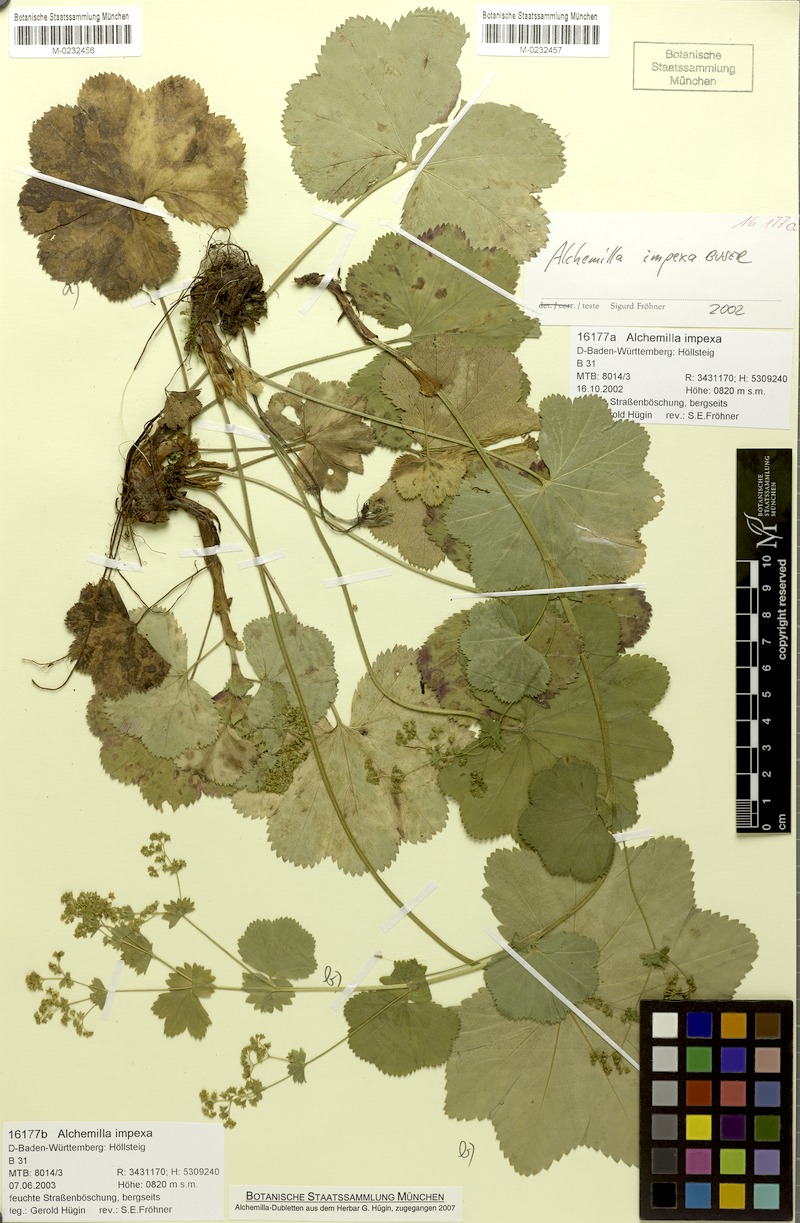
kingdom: Plantae
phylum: Tracheophyta
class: Magnoliopsida
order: Rosales
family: Rosaceae
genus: Alchemilla
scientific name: Alchemilla impexa
